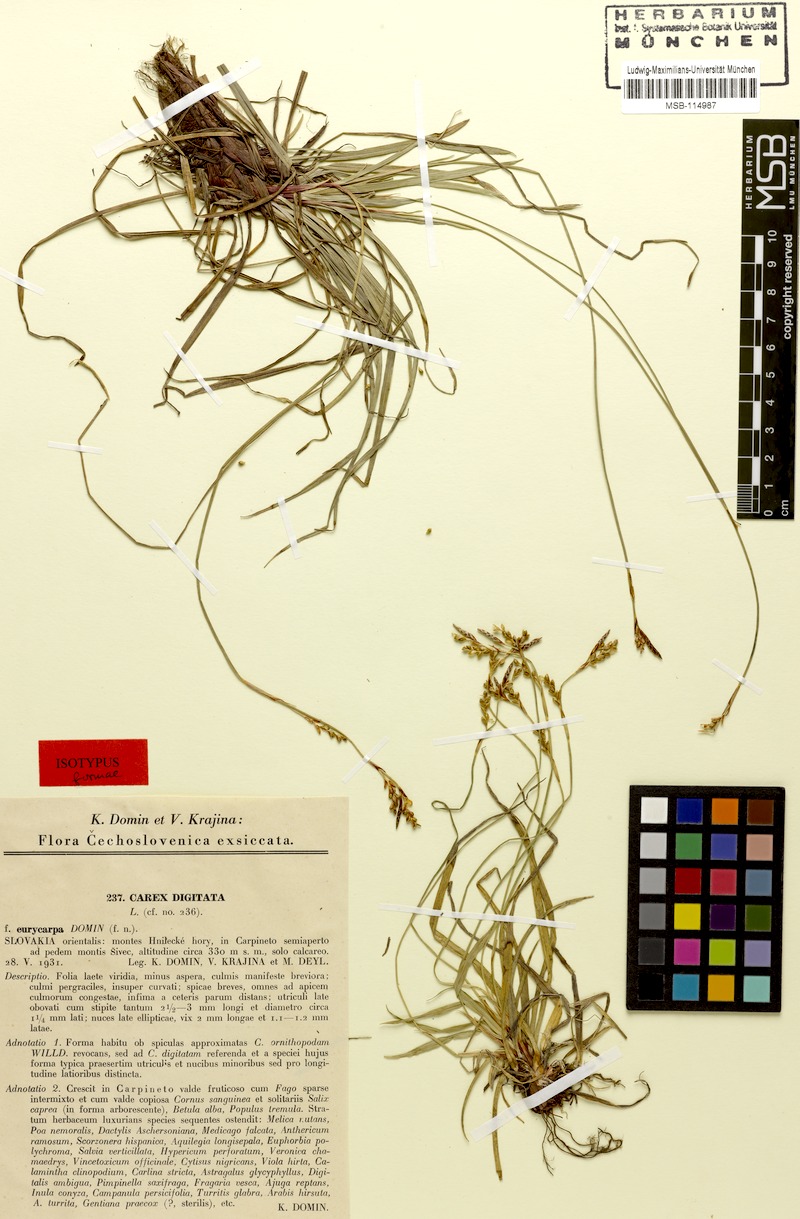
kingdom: Plantae
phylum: Tracheophyta
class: Liliopsida
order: Poales
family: Cyperaceae
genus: Carex
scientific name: Carex digitata
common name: Fingered sedge
